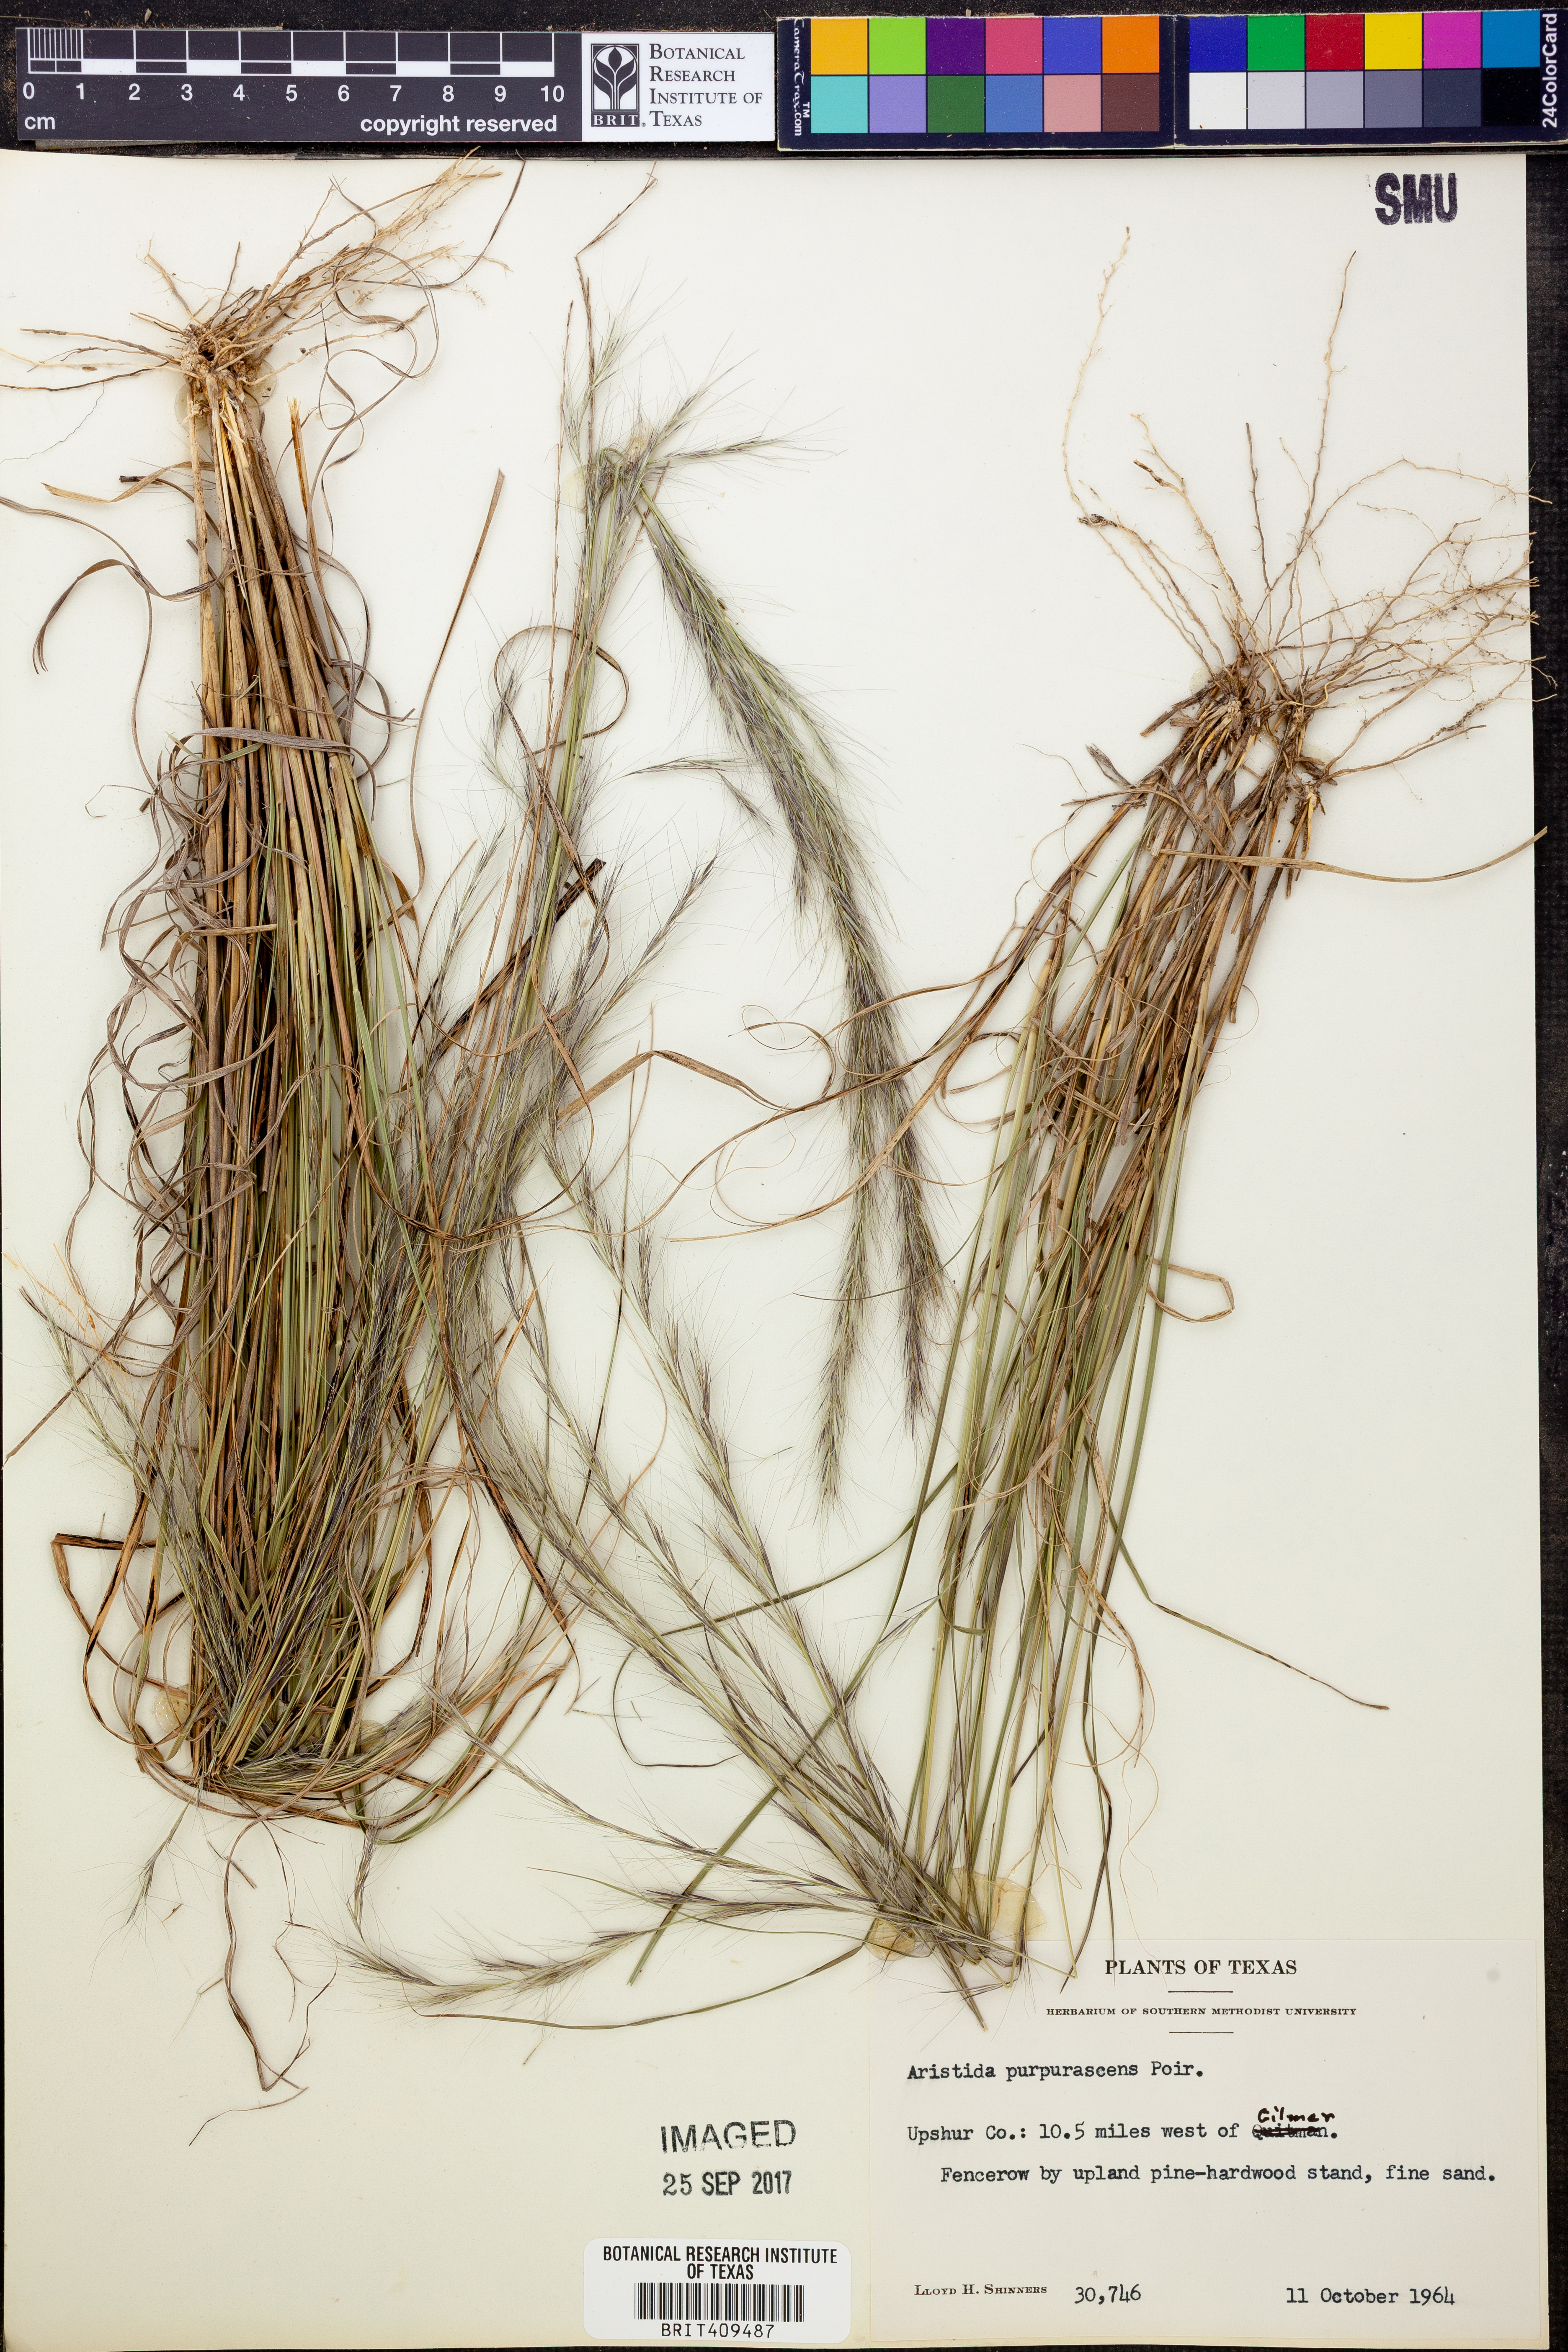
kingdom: Plantae
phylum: Tracheophyta
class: Liliopsida
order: Poales
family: Poaceae
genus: Aristida
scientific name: Aristida purpurascens
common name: Arrow-feather
